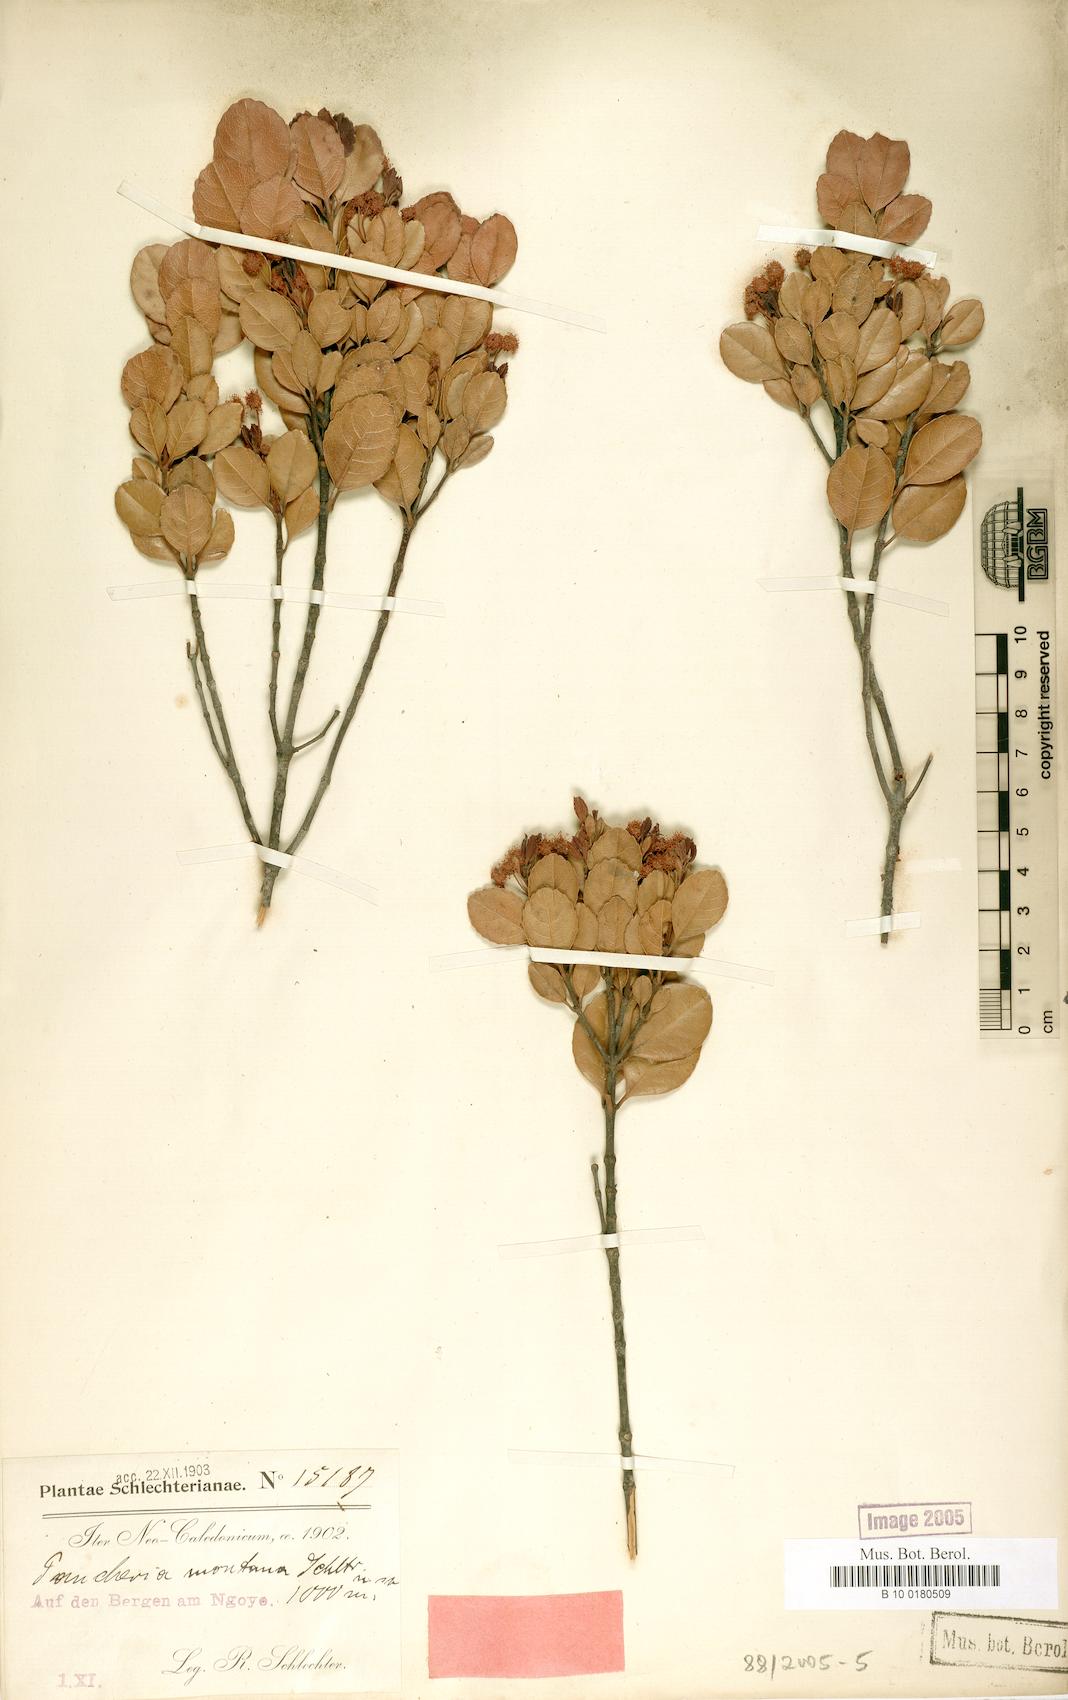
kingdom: Plantae
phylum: Tracheophyta
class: Magnoliopsida
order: Oxalidales
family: Cunoniaceae
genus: Pancheria
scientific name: Pancheria engleriana
